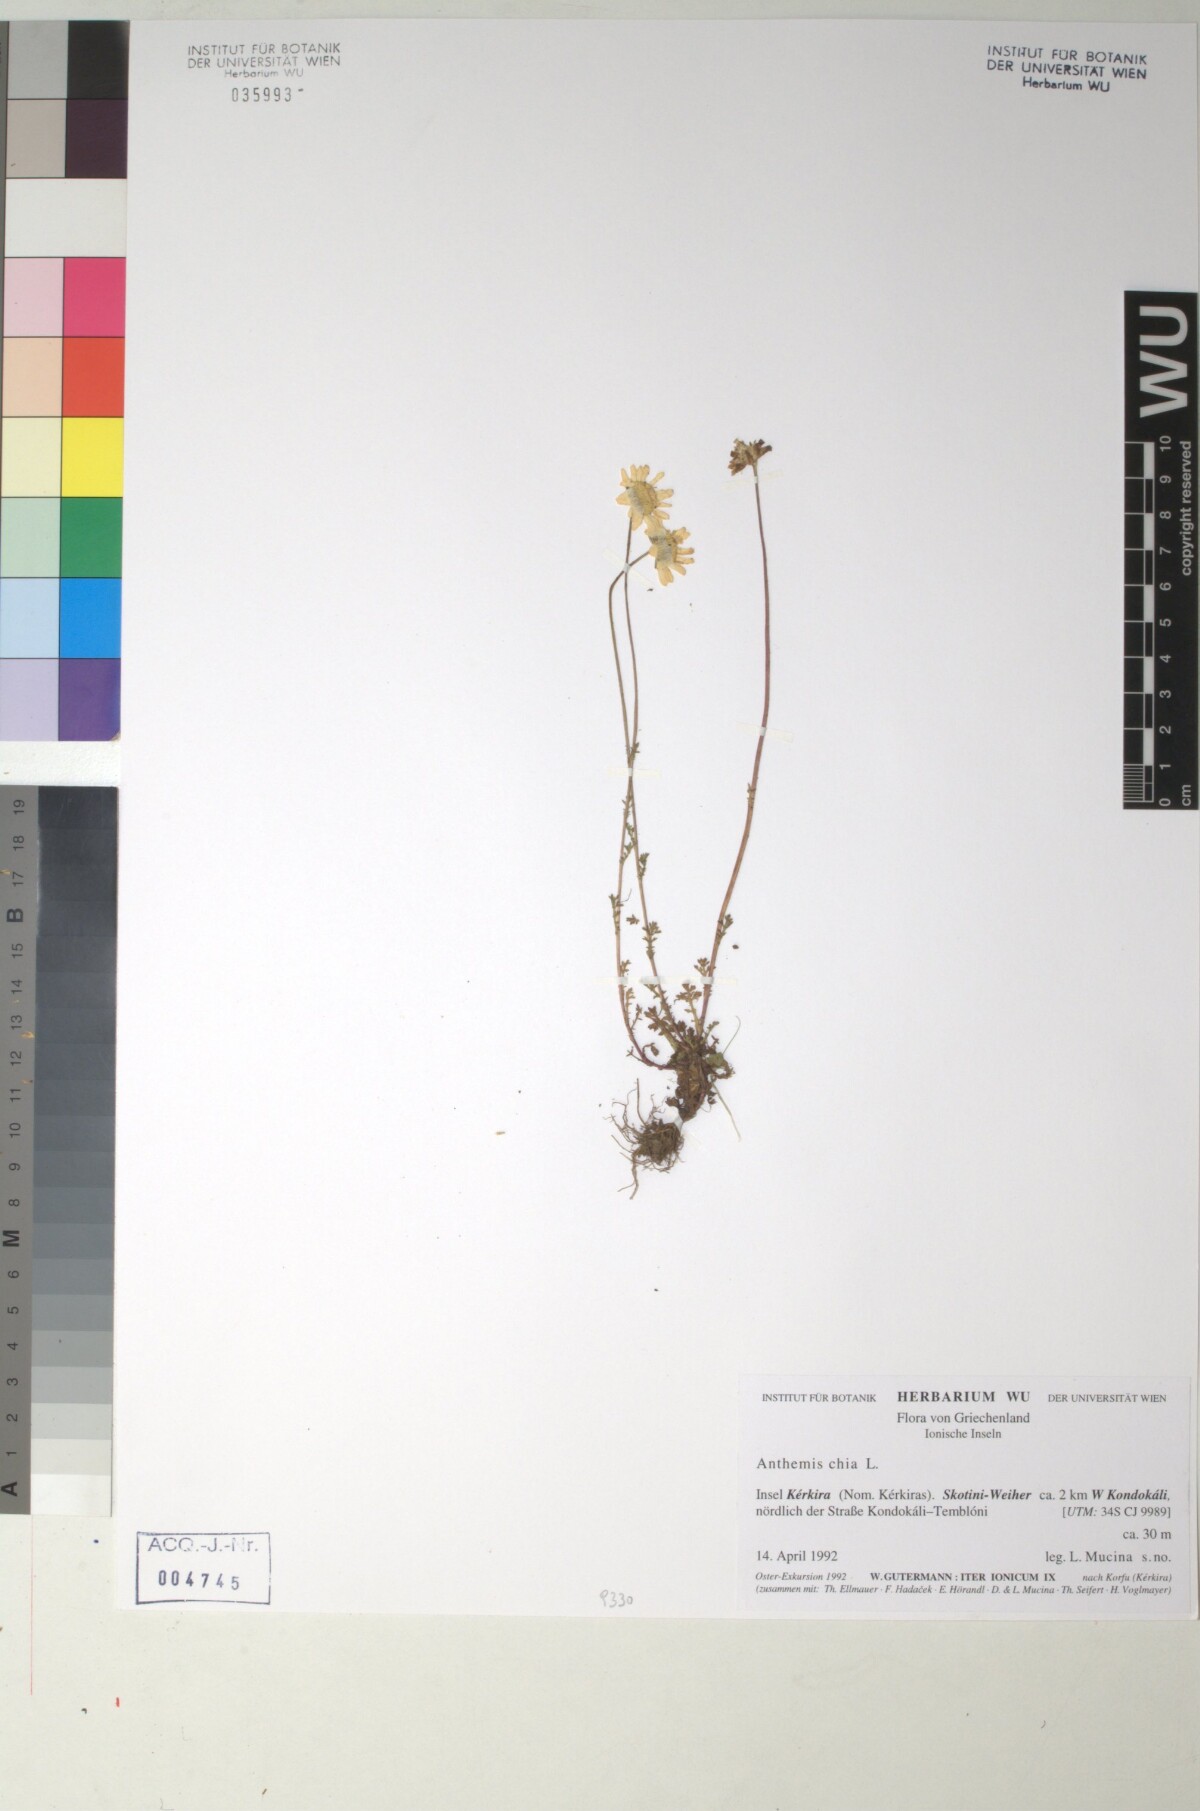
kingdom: Plantae
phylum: Tracheophyta
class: Magnoliopsida
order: Asterales
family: Asteraceae
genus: Anthemis
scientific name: Anthemis chia
